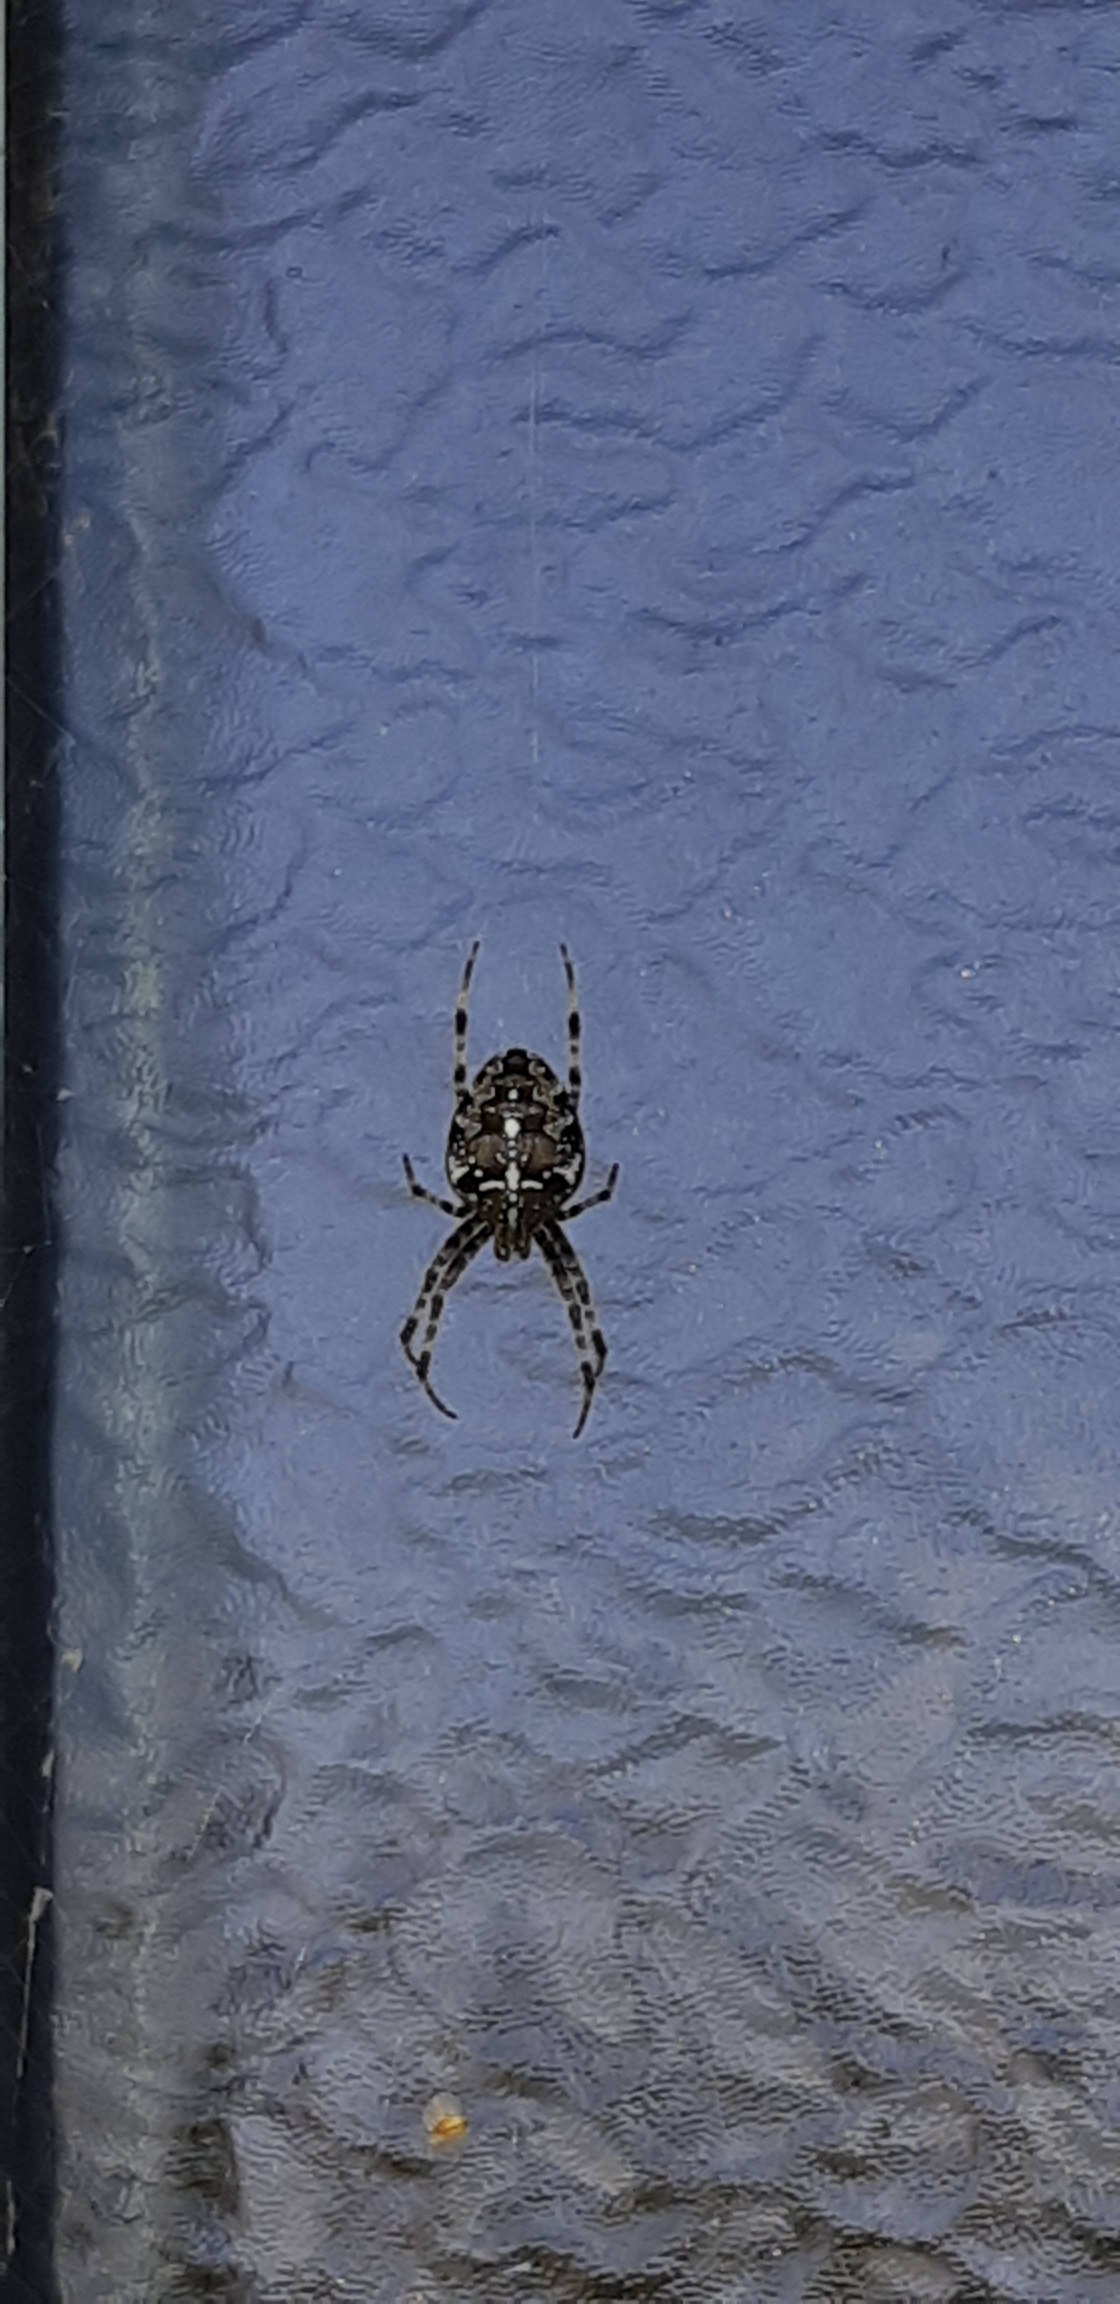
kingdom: Animalia
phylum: Arthropoda
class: Arachnida
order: Araneae
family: Araneidae
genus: Araneus
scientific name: Araneus diadematus
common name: Korsedderkop
